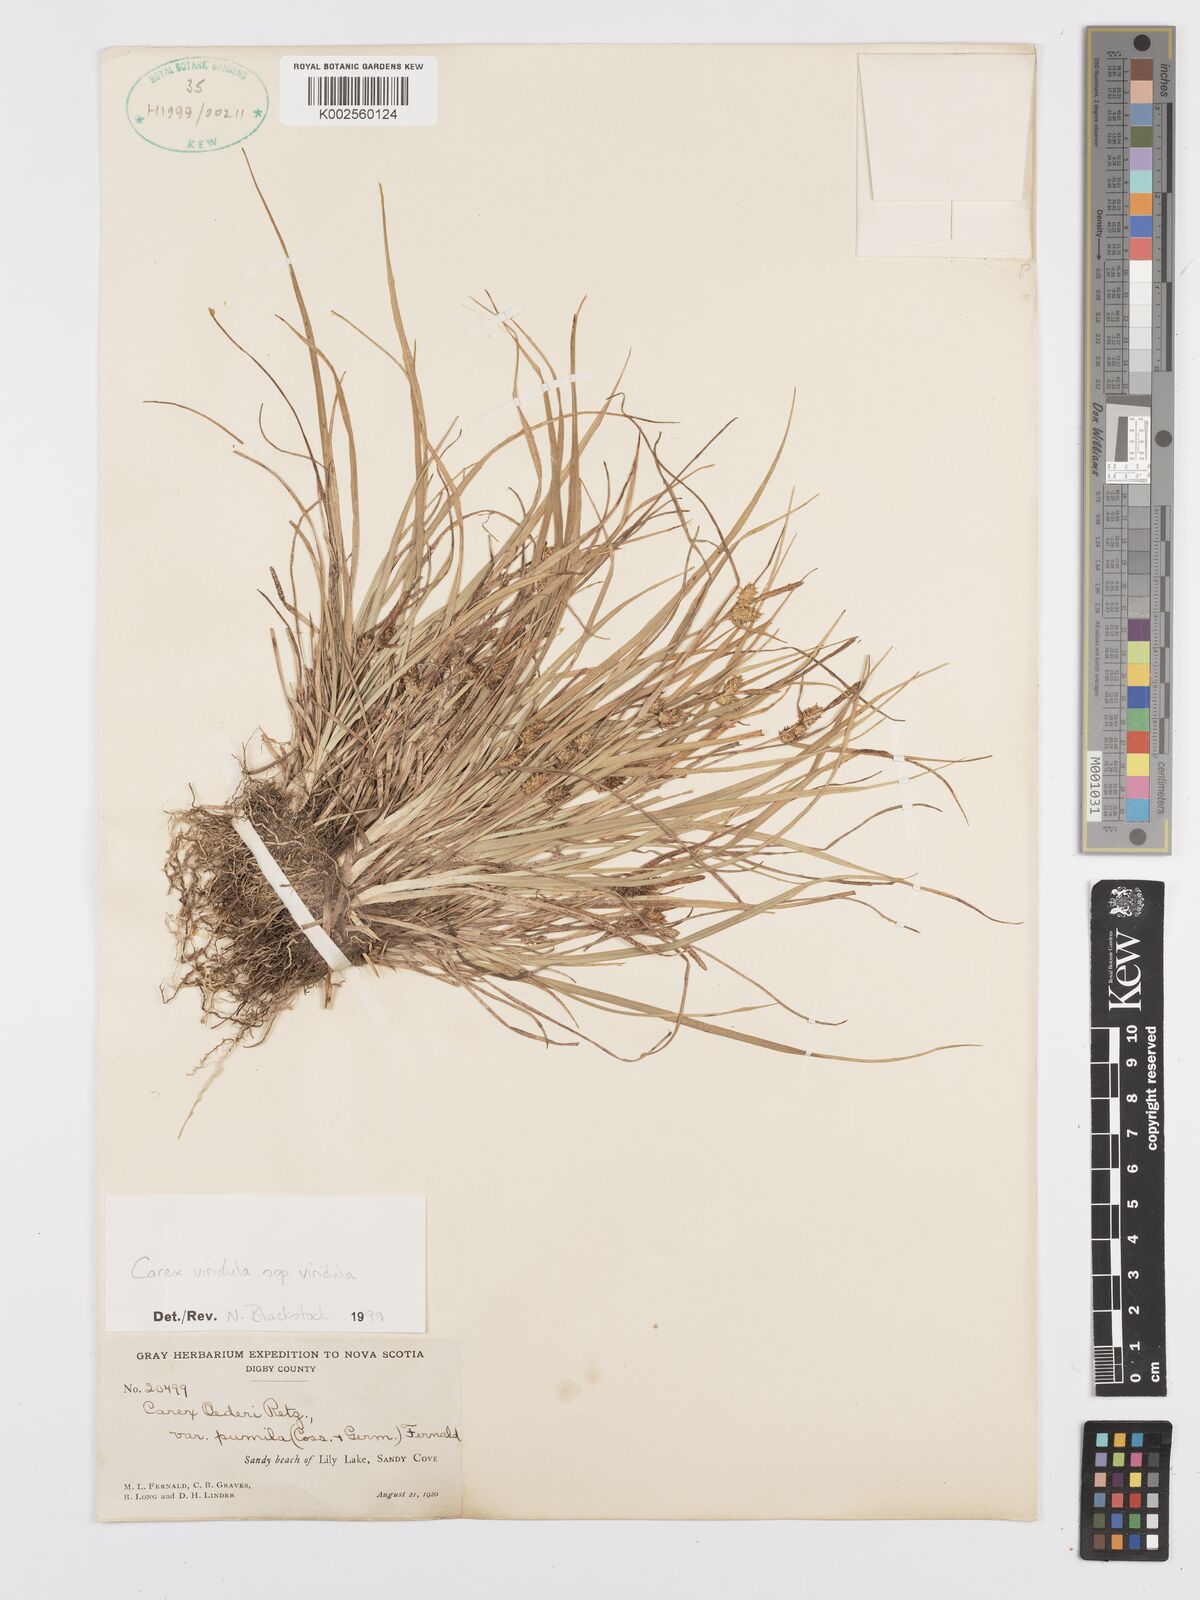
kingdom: Plantae
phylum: Tracheophyta
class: Liliopsida
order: Poales
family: Cyperaceae
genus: Carex
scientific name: Carex oederi
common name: Common & small-fruited yellow-sedge
